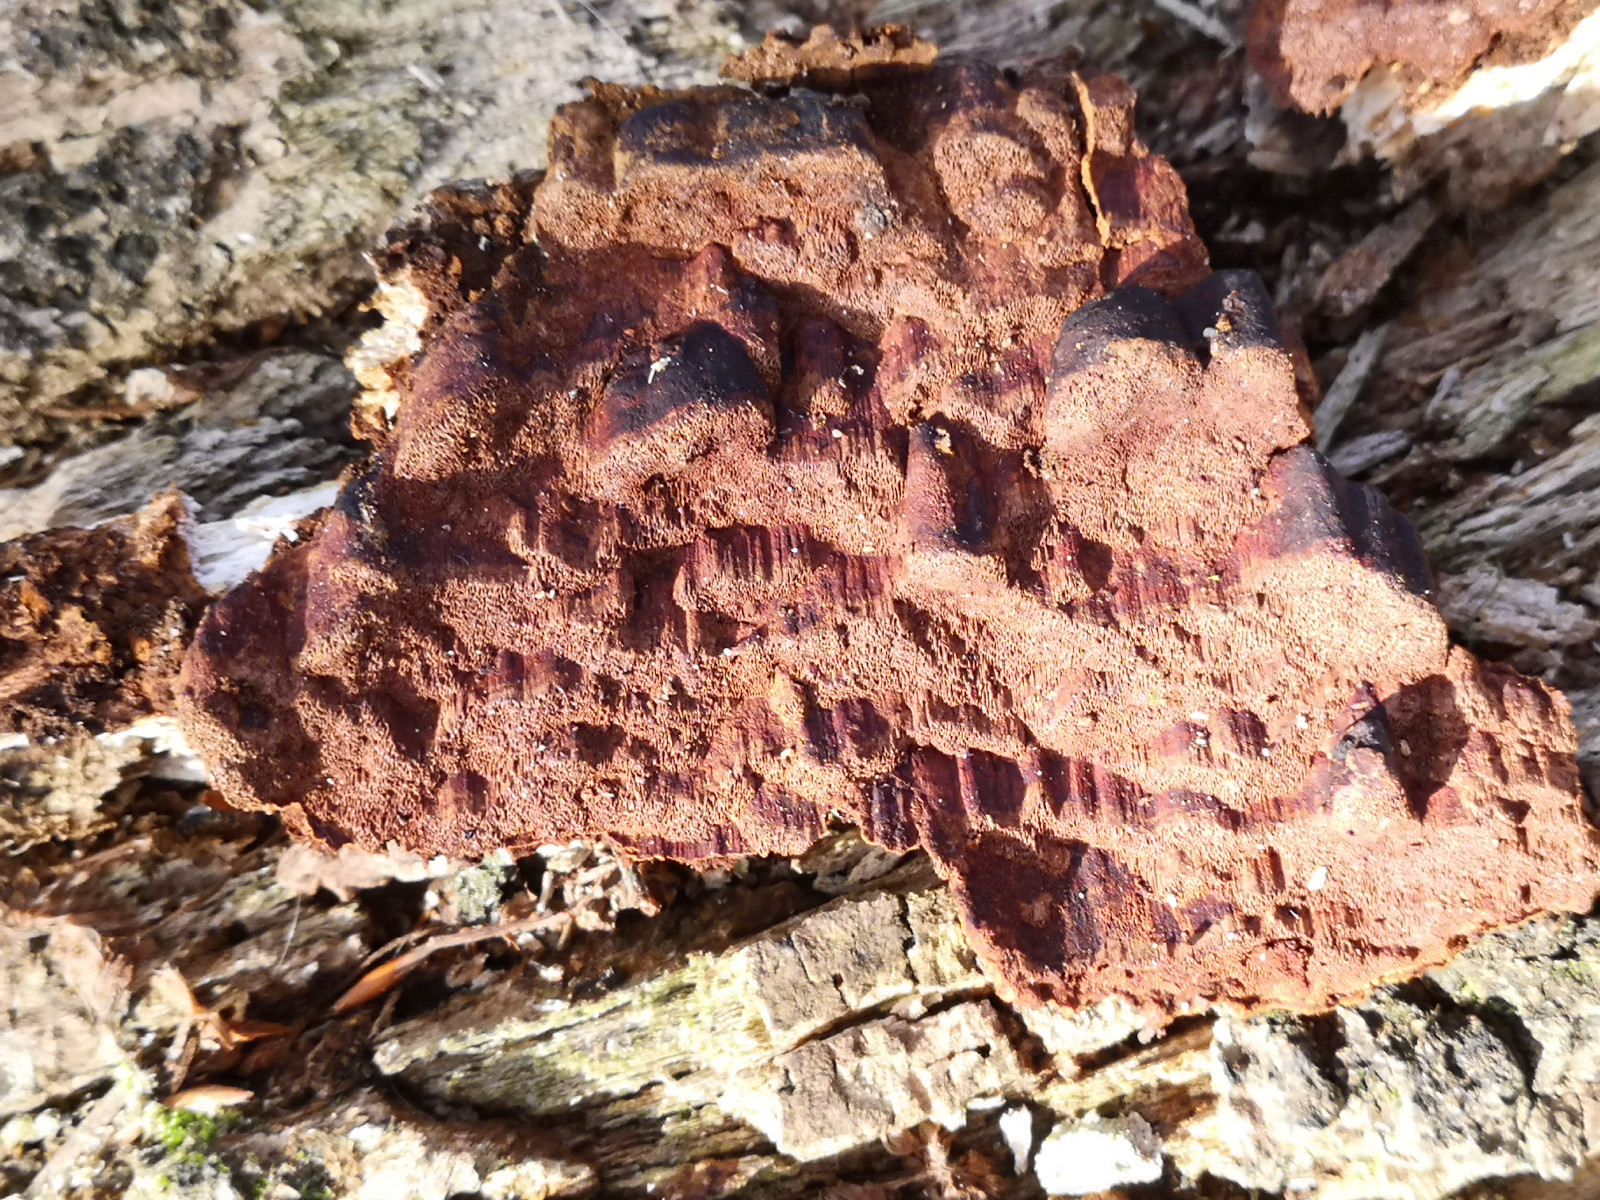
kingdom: Fungi
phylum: Basidiomycota
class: Agaricomycetes
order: Hymenochaetales
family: Hymenochaetaceae
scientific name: Hymenochaetaceae
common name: børstesvampfamilien
